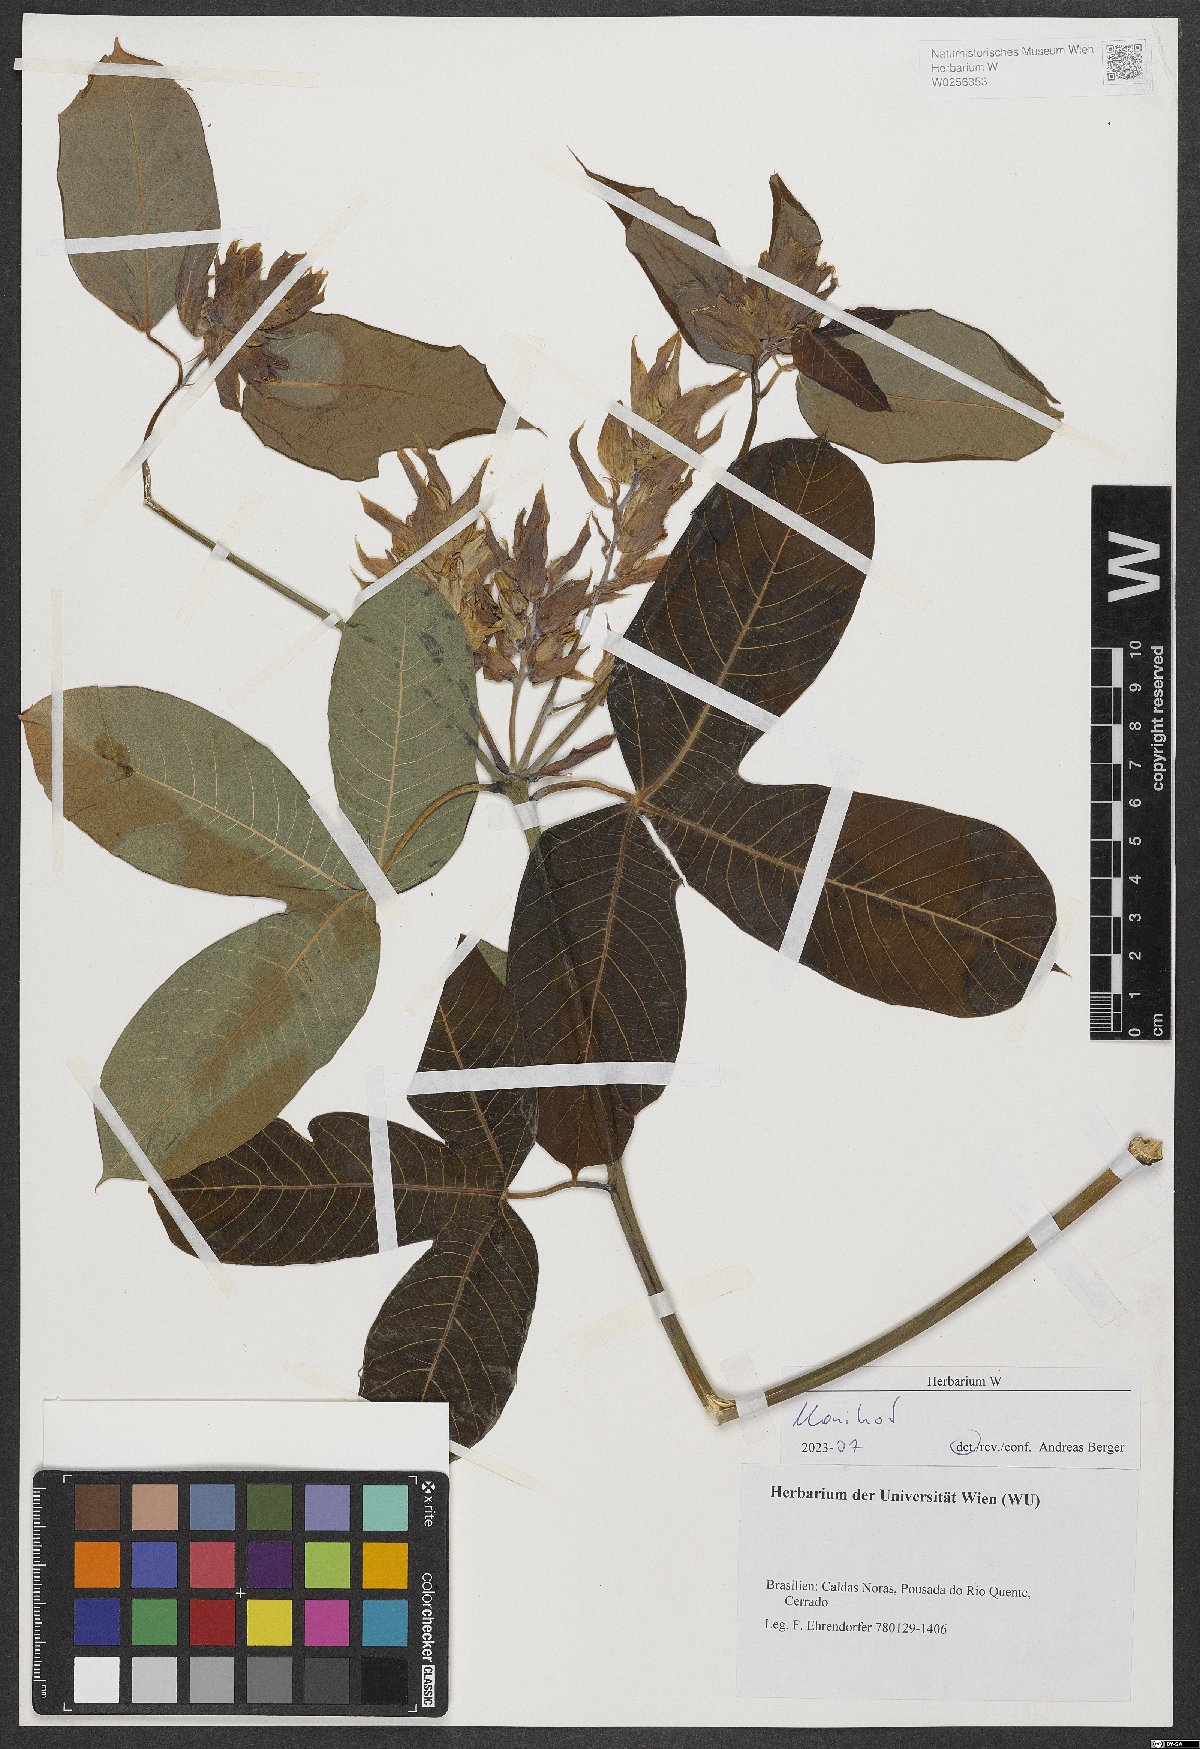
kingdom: Plantae
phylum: Tracheophyta
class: Magnoliopsida
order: Malpighiales
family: Euphorbiaceae
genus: Manihot
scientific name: Manihot
